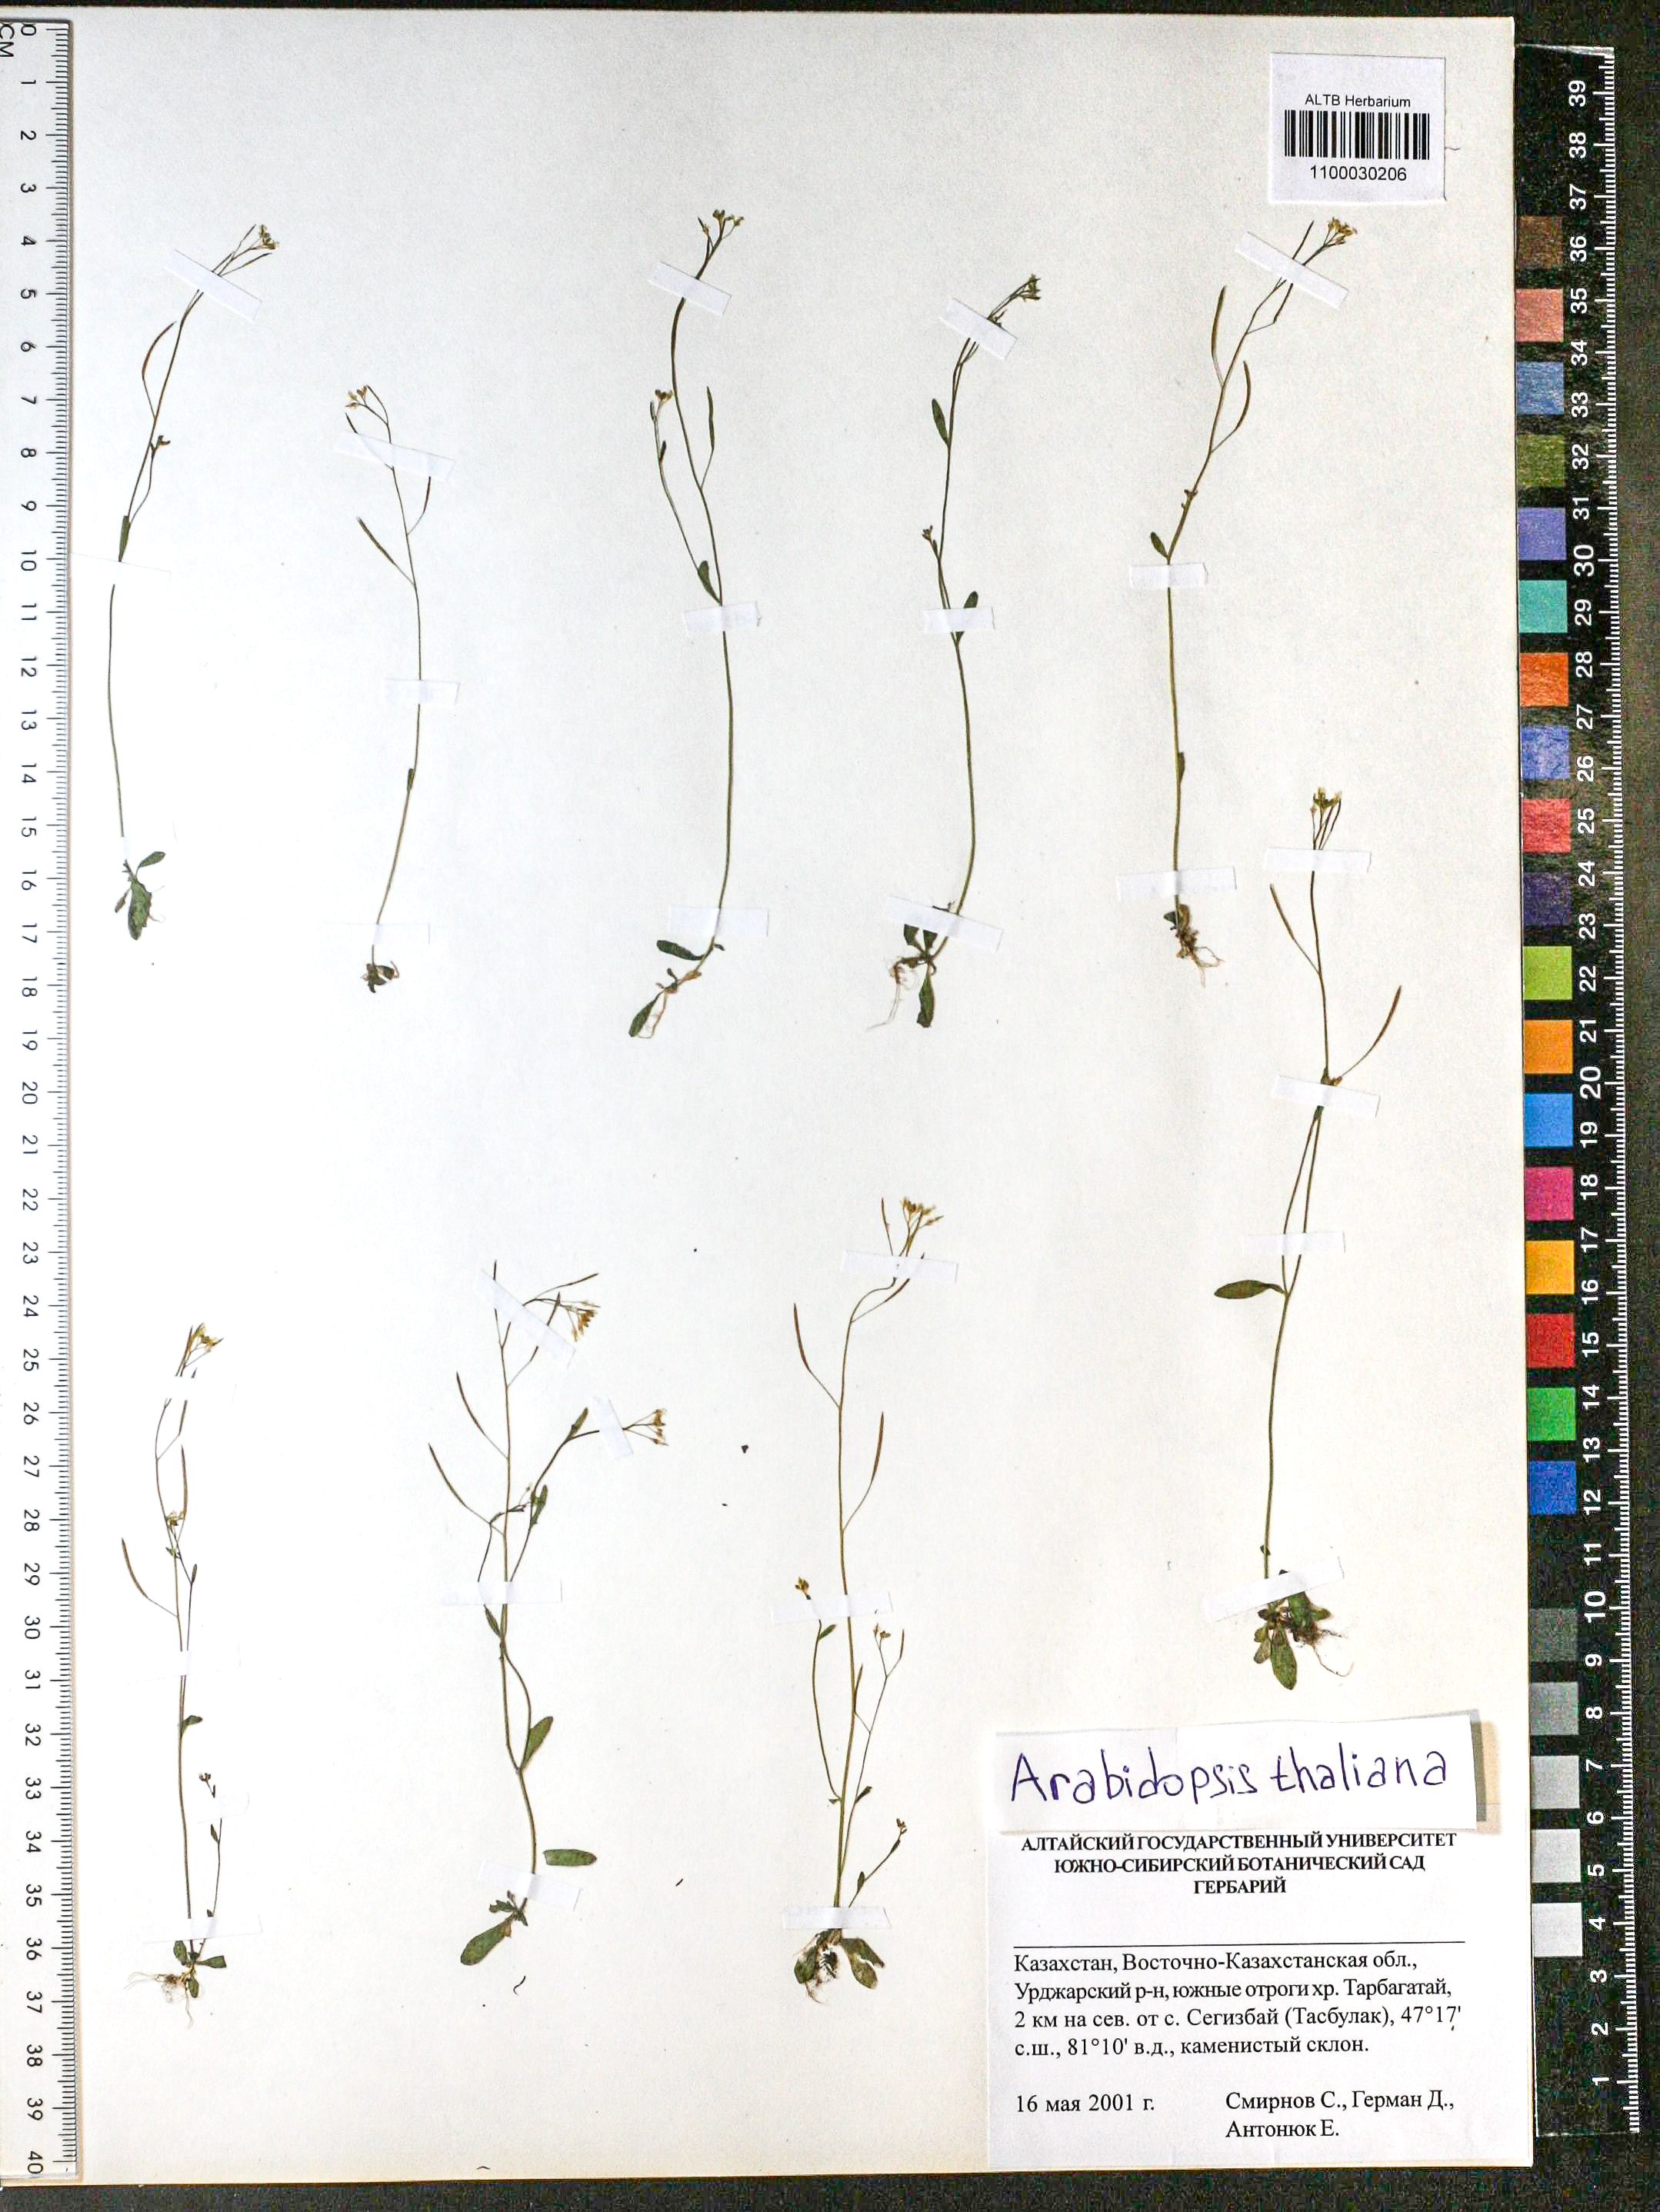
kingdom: Plantae
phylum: Tracheophyta
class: Magnoliopsida
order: Brassicales
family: Brassicaceae
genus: Arabidopsis
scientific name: Arabidopsis thaliana
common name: Thale cress
